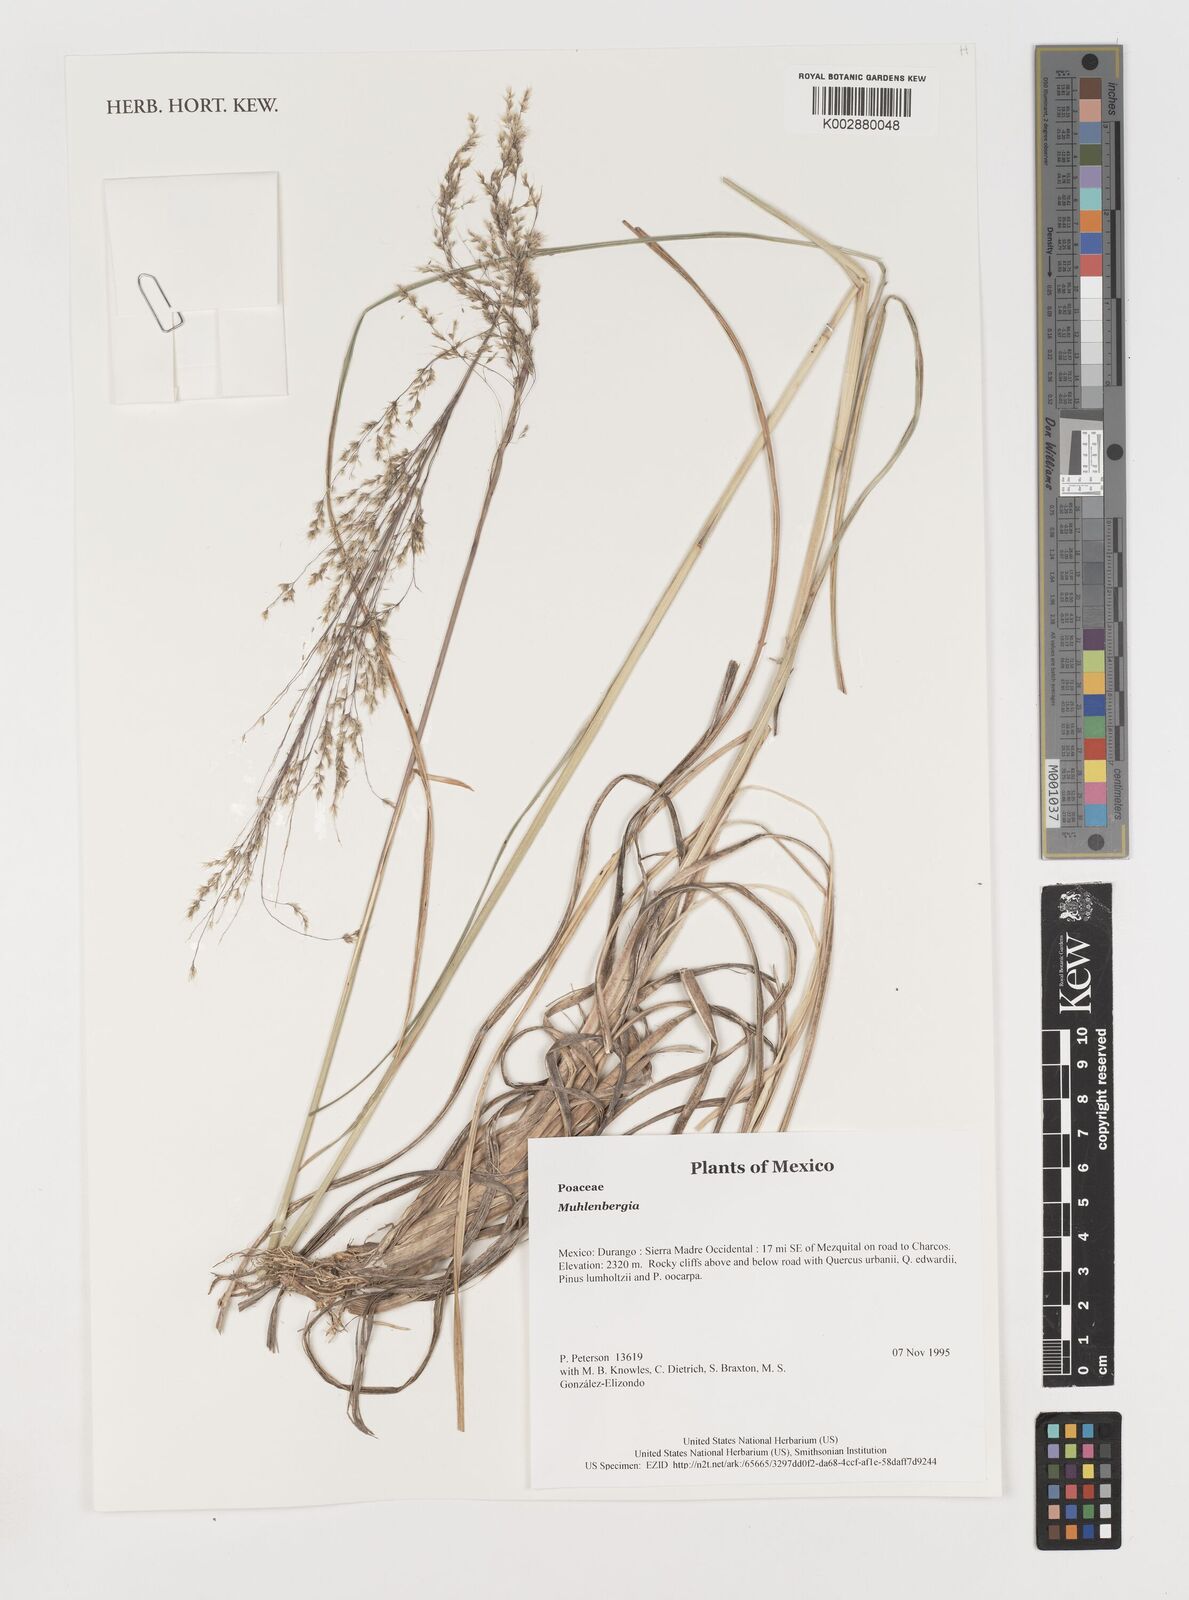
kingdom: Plantae
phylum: Tracheophyta
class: Liliopsida
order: Poales
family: Poaceae
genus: Muhlenbergia
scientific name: Muhlenbergia
